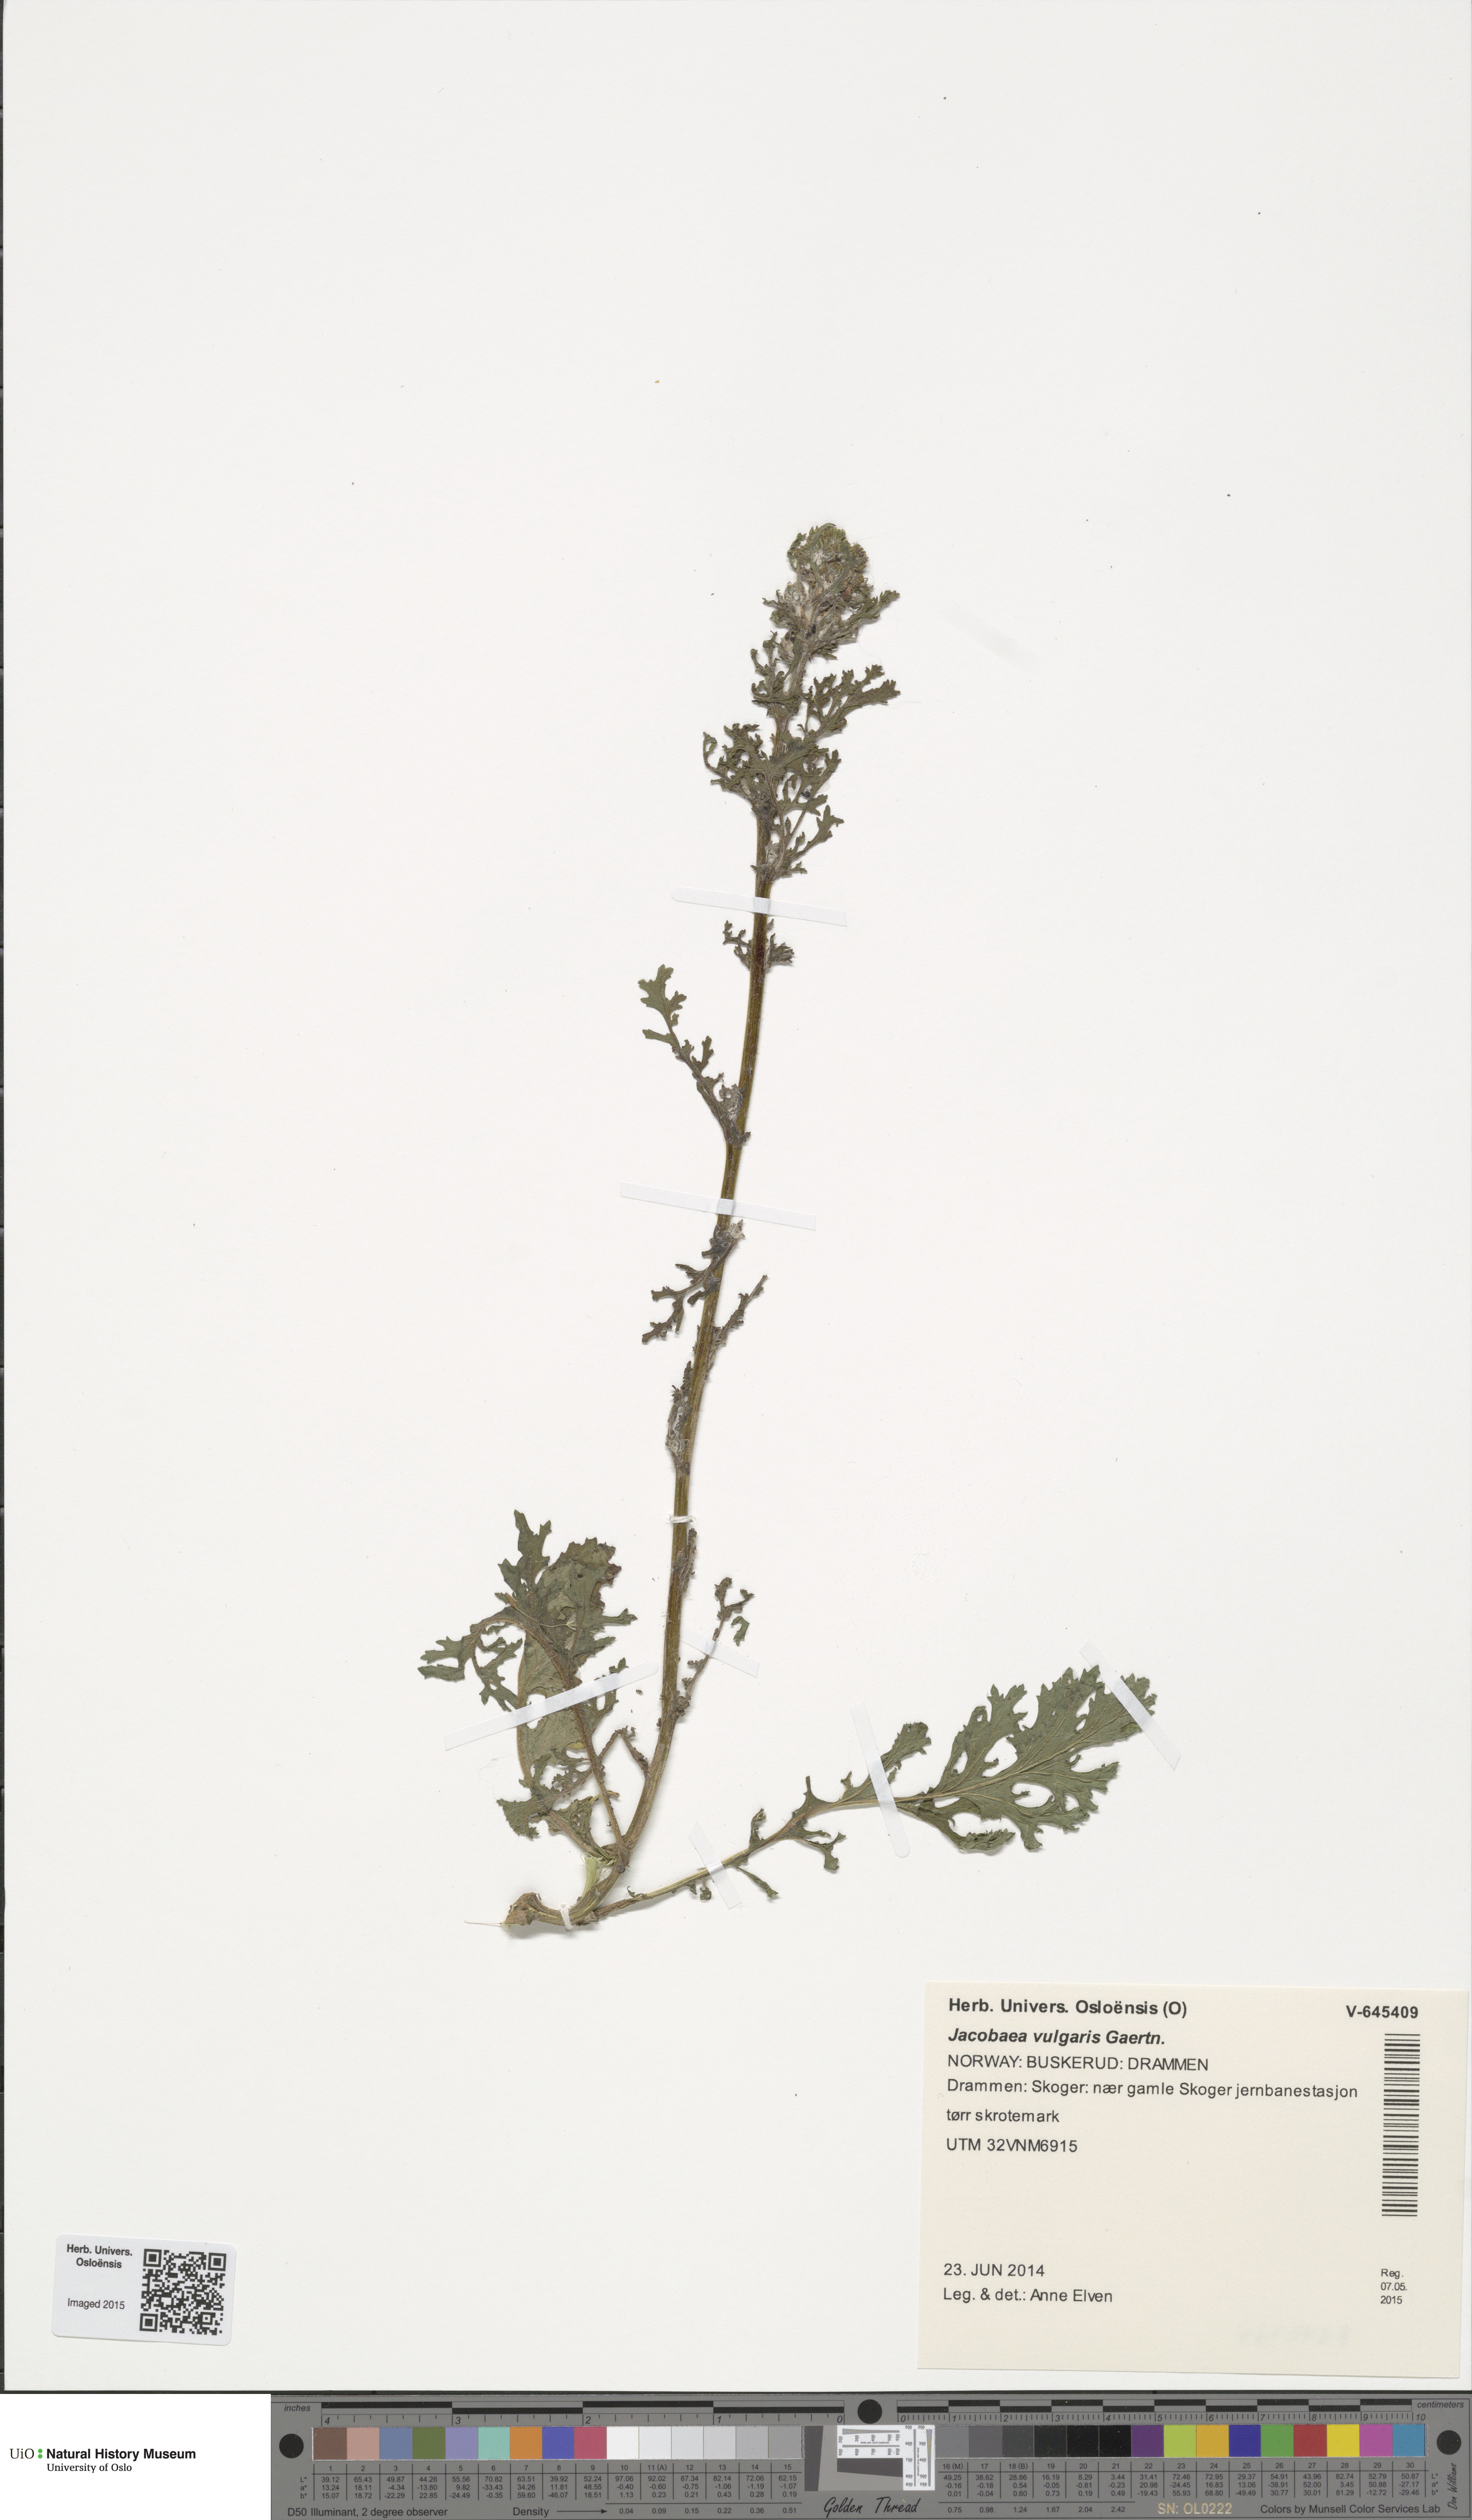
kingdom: Plantae
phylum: Tracheophyta
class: Magnoliopsida
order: Asterales
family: Asteraceae
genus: Jacobaea
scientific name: Jacobaea vulgaris
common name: Stinking willie
